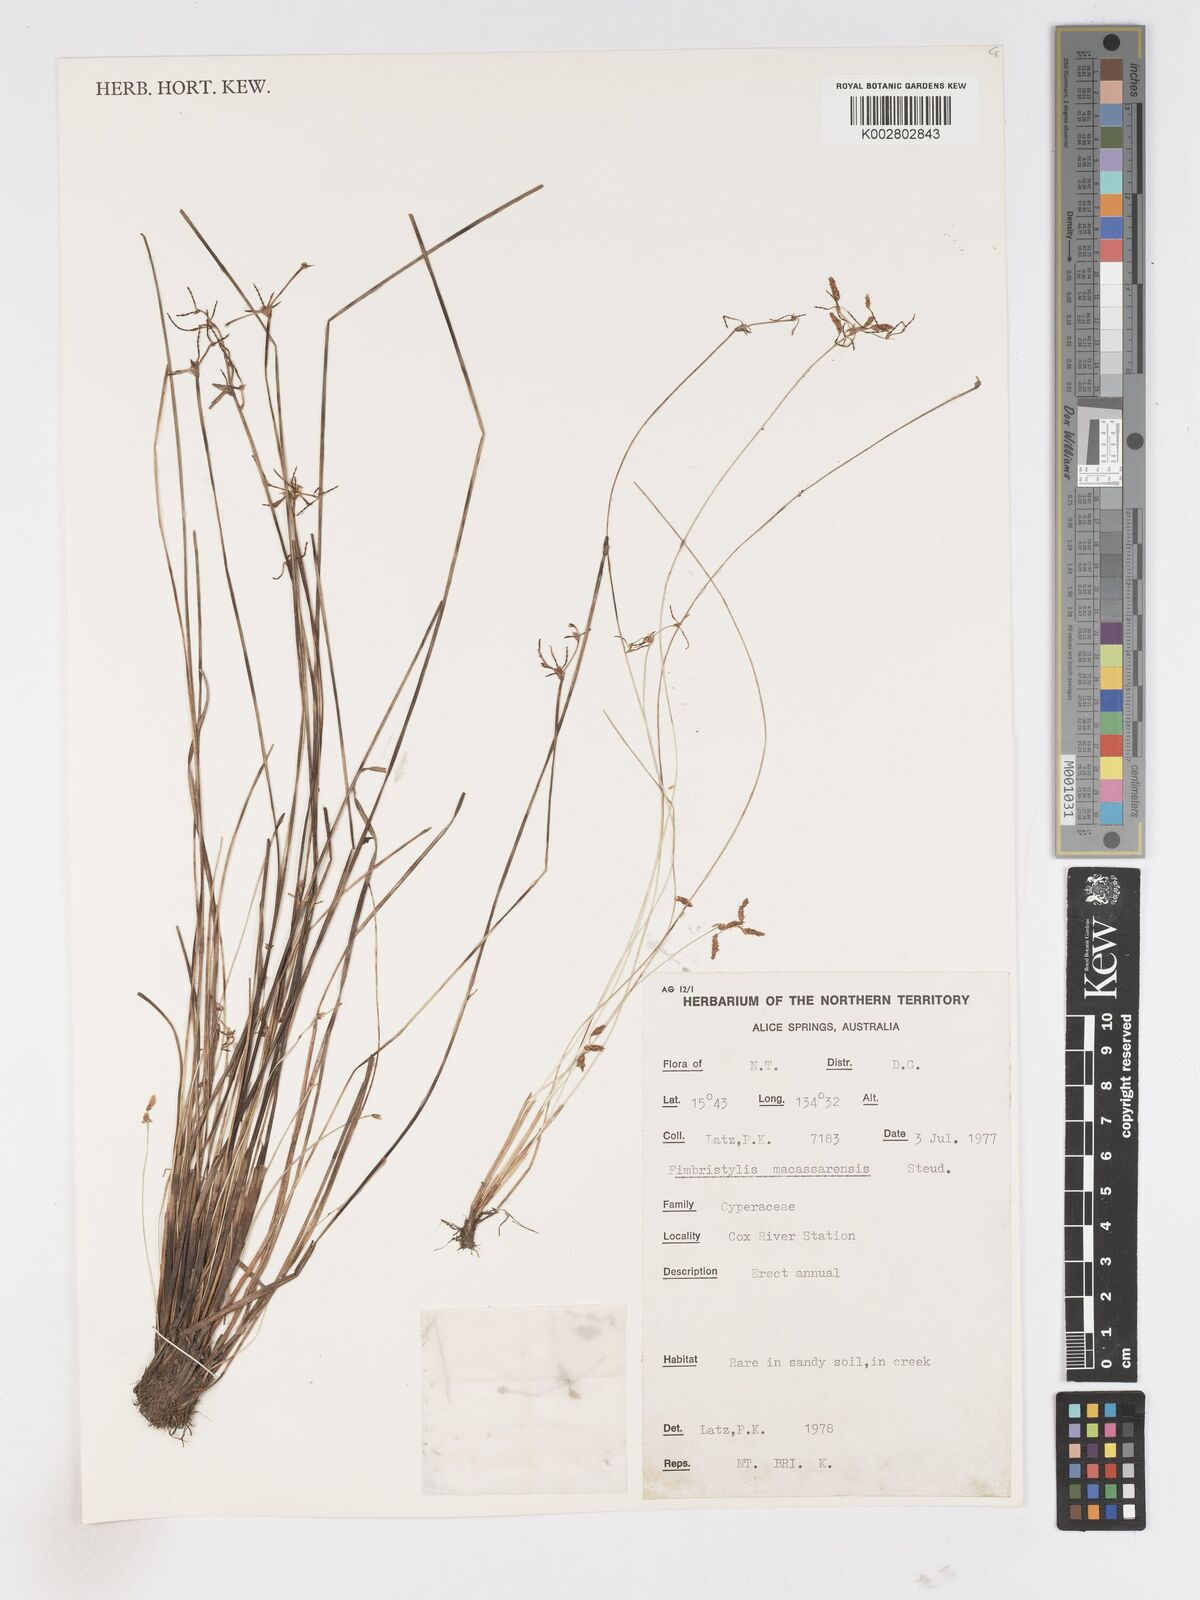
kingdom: Plantae
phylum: Tracheophyta
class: Liliopsida
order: Poales
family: Cyperaceae
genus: Fimbristylis
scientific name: Fimbristylis macassarensis
